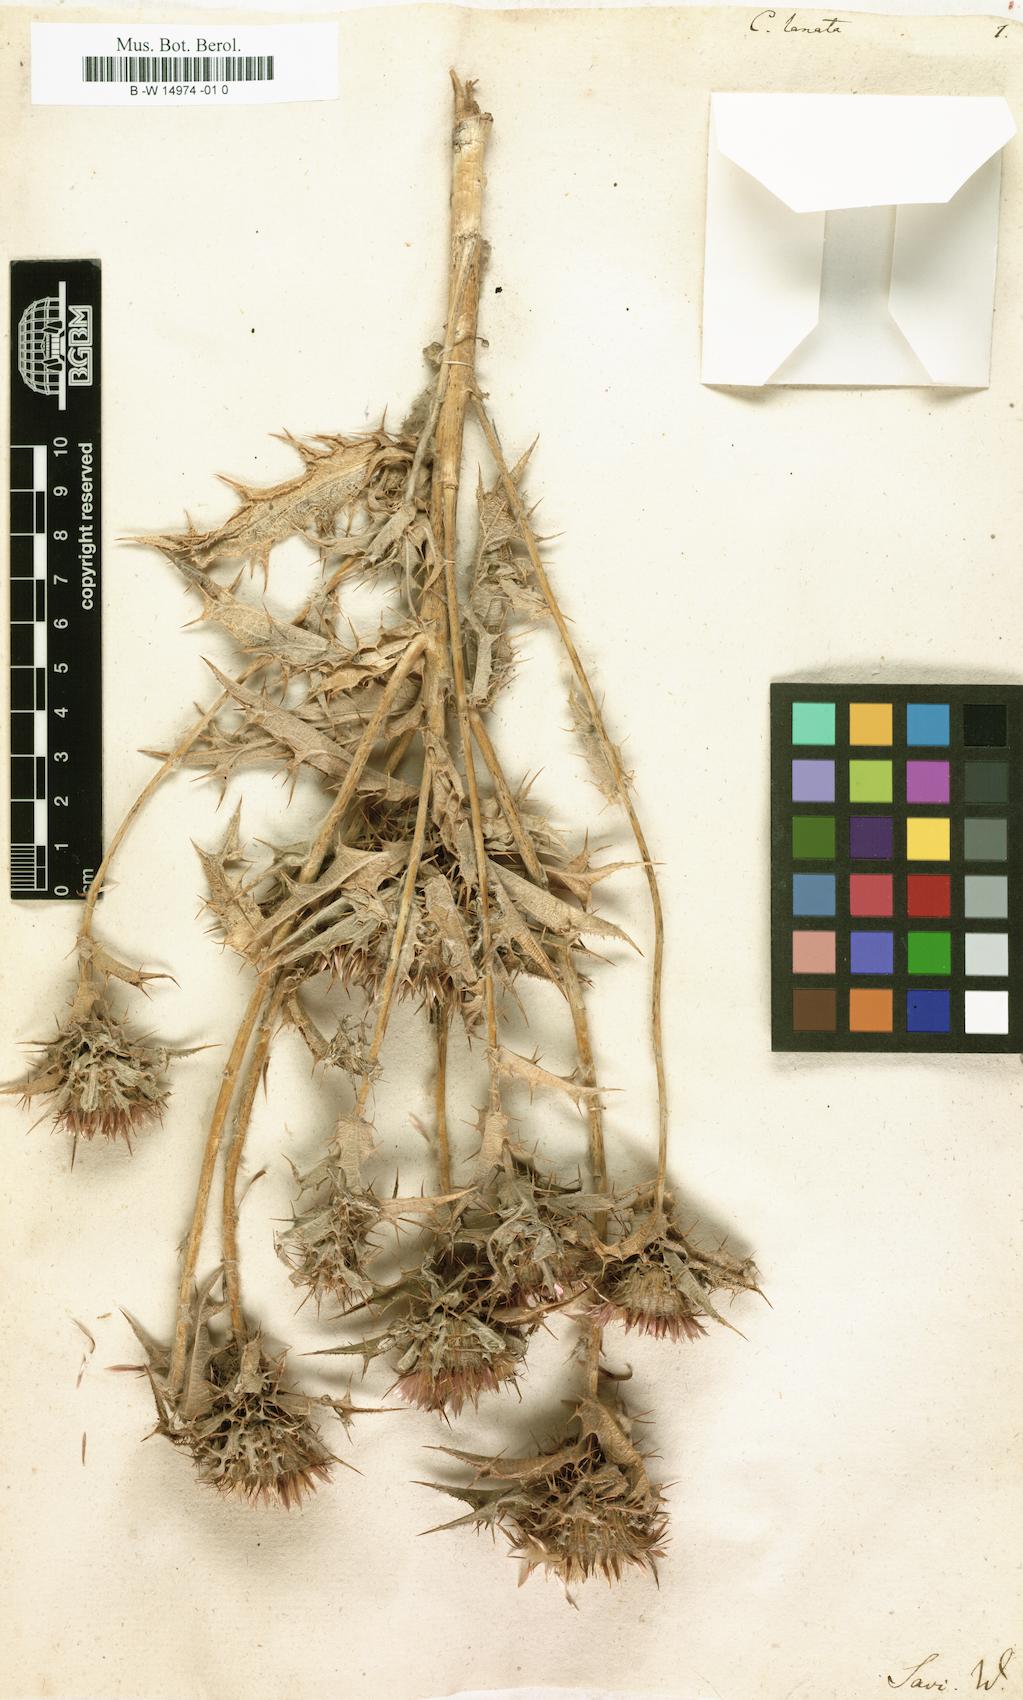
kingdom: Plantae
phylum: Tracheophyta
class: Magnoliopsida
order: Asterales
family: Asteraceae
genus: Carlina
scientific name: Carlina lanata
